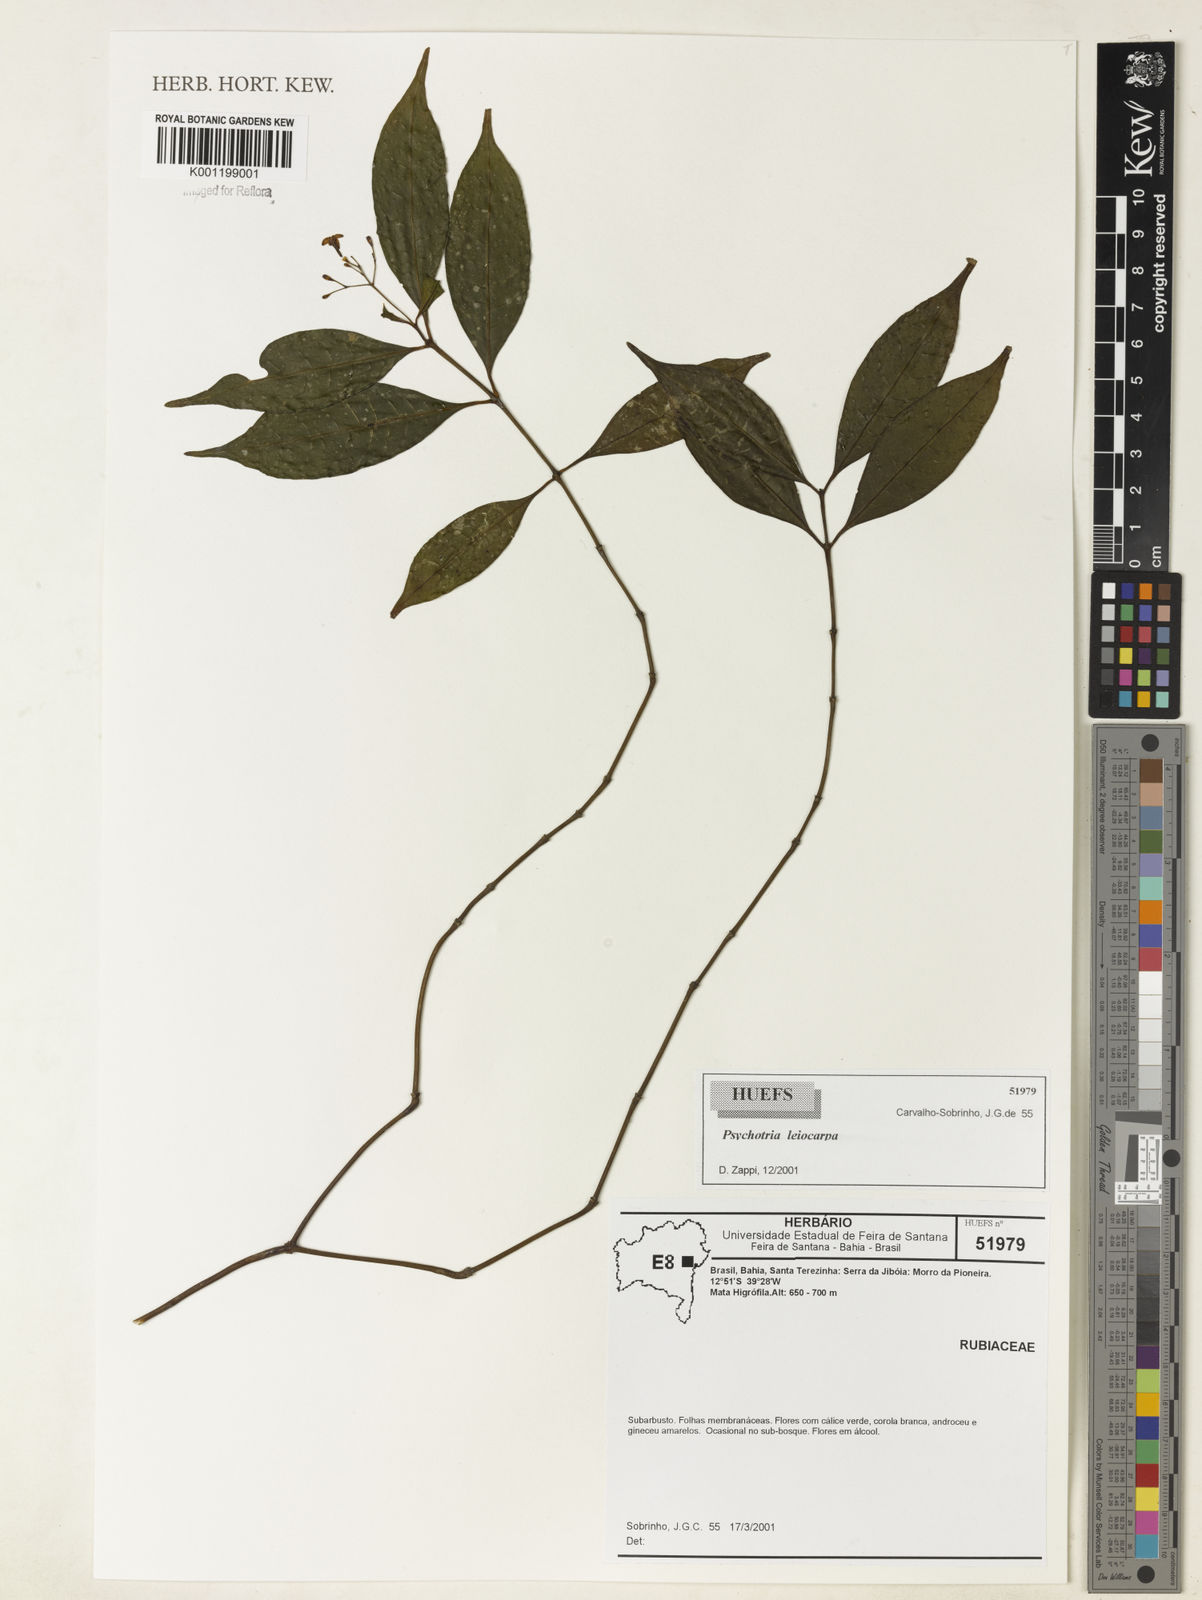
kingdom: Plantae
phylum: Tracheophyta
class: Magnoliopsida
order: Gentianales
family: Rubiaceae
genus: Psychotria
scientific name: Psychotria leiocarpa
